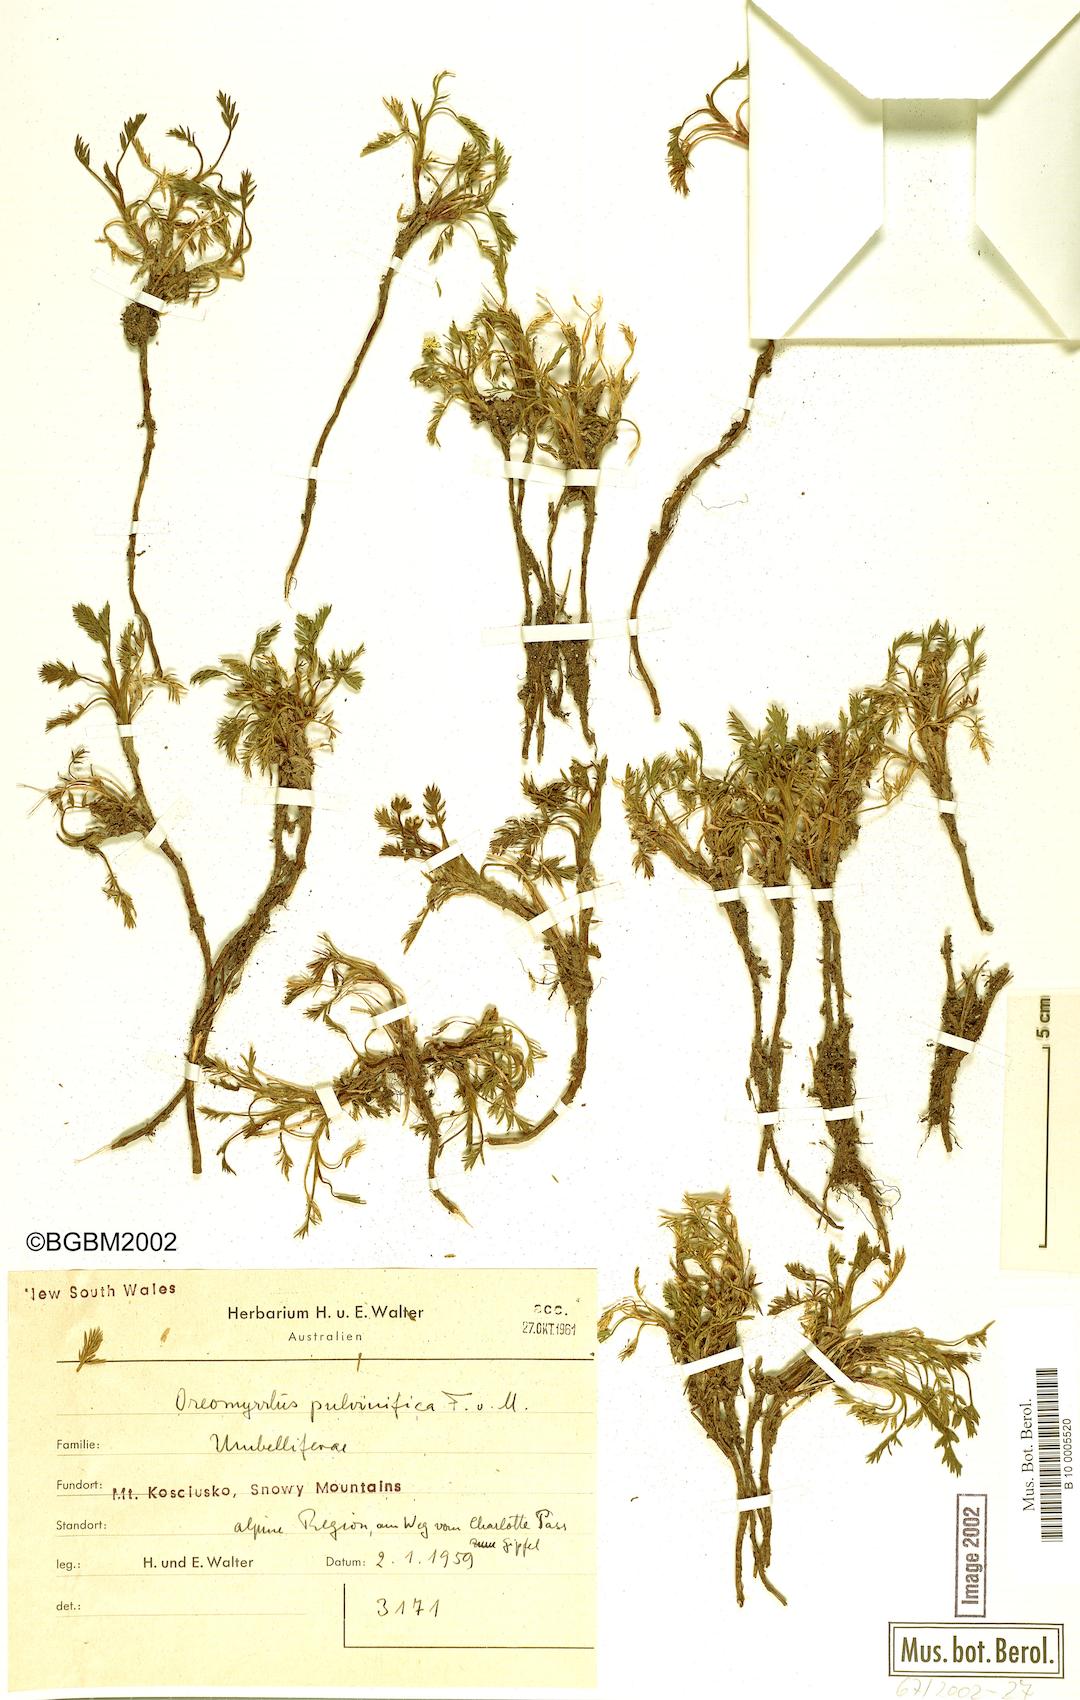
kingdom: Plantae
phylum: Tracheophyta
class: Magnoliopsida
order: Apiales
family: Apiaceae
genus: Chaerophyllum
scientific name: Chaerophyllum pulvinificum
